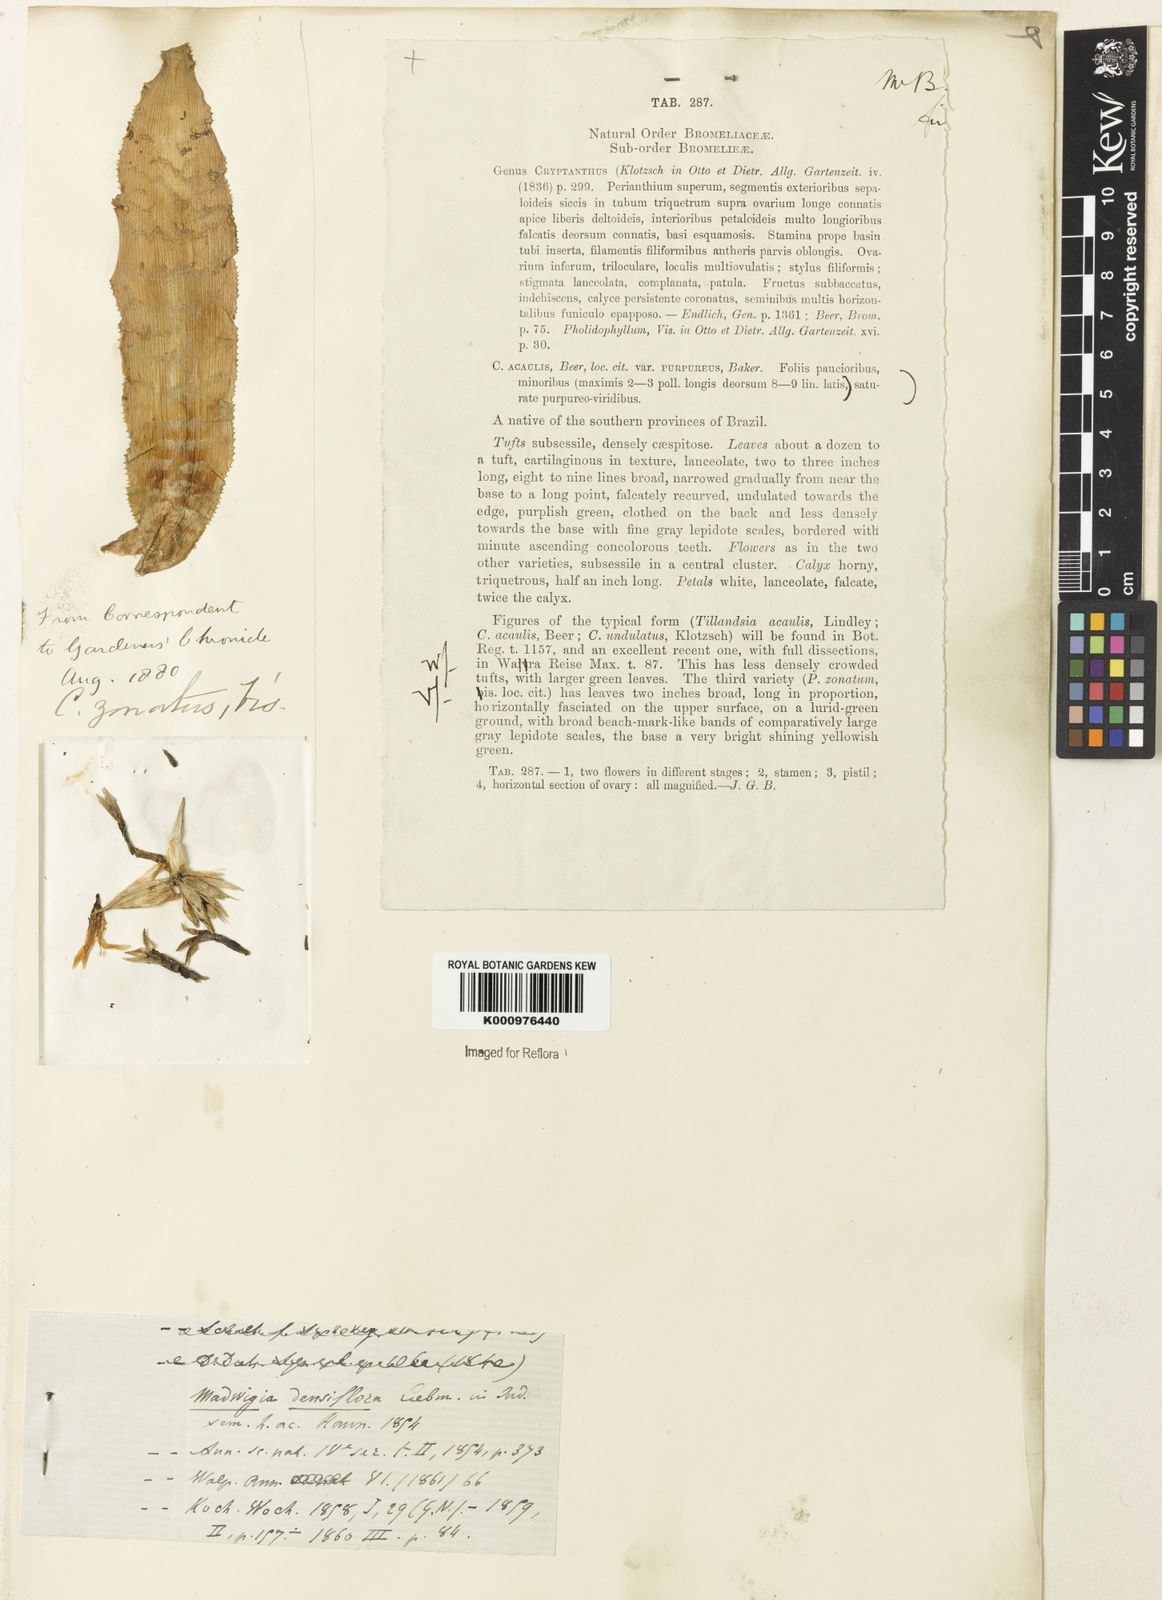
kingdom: Plantae
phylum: Tracheophyta
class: Liliopsida
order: Poales
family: Bromeliaceae
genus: Cryptanthus
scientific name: Cryptanthus acaulis
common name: Starfishplant
